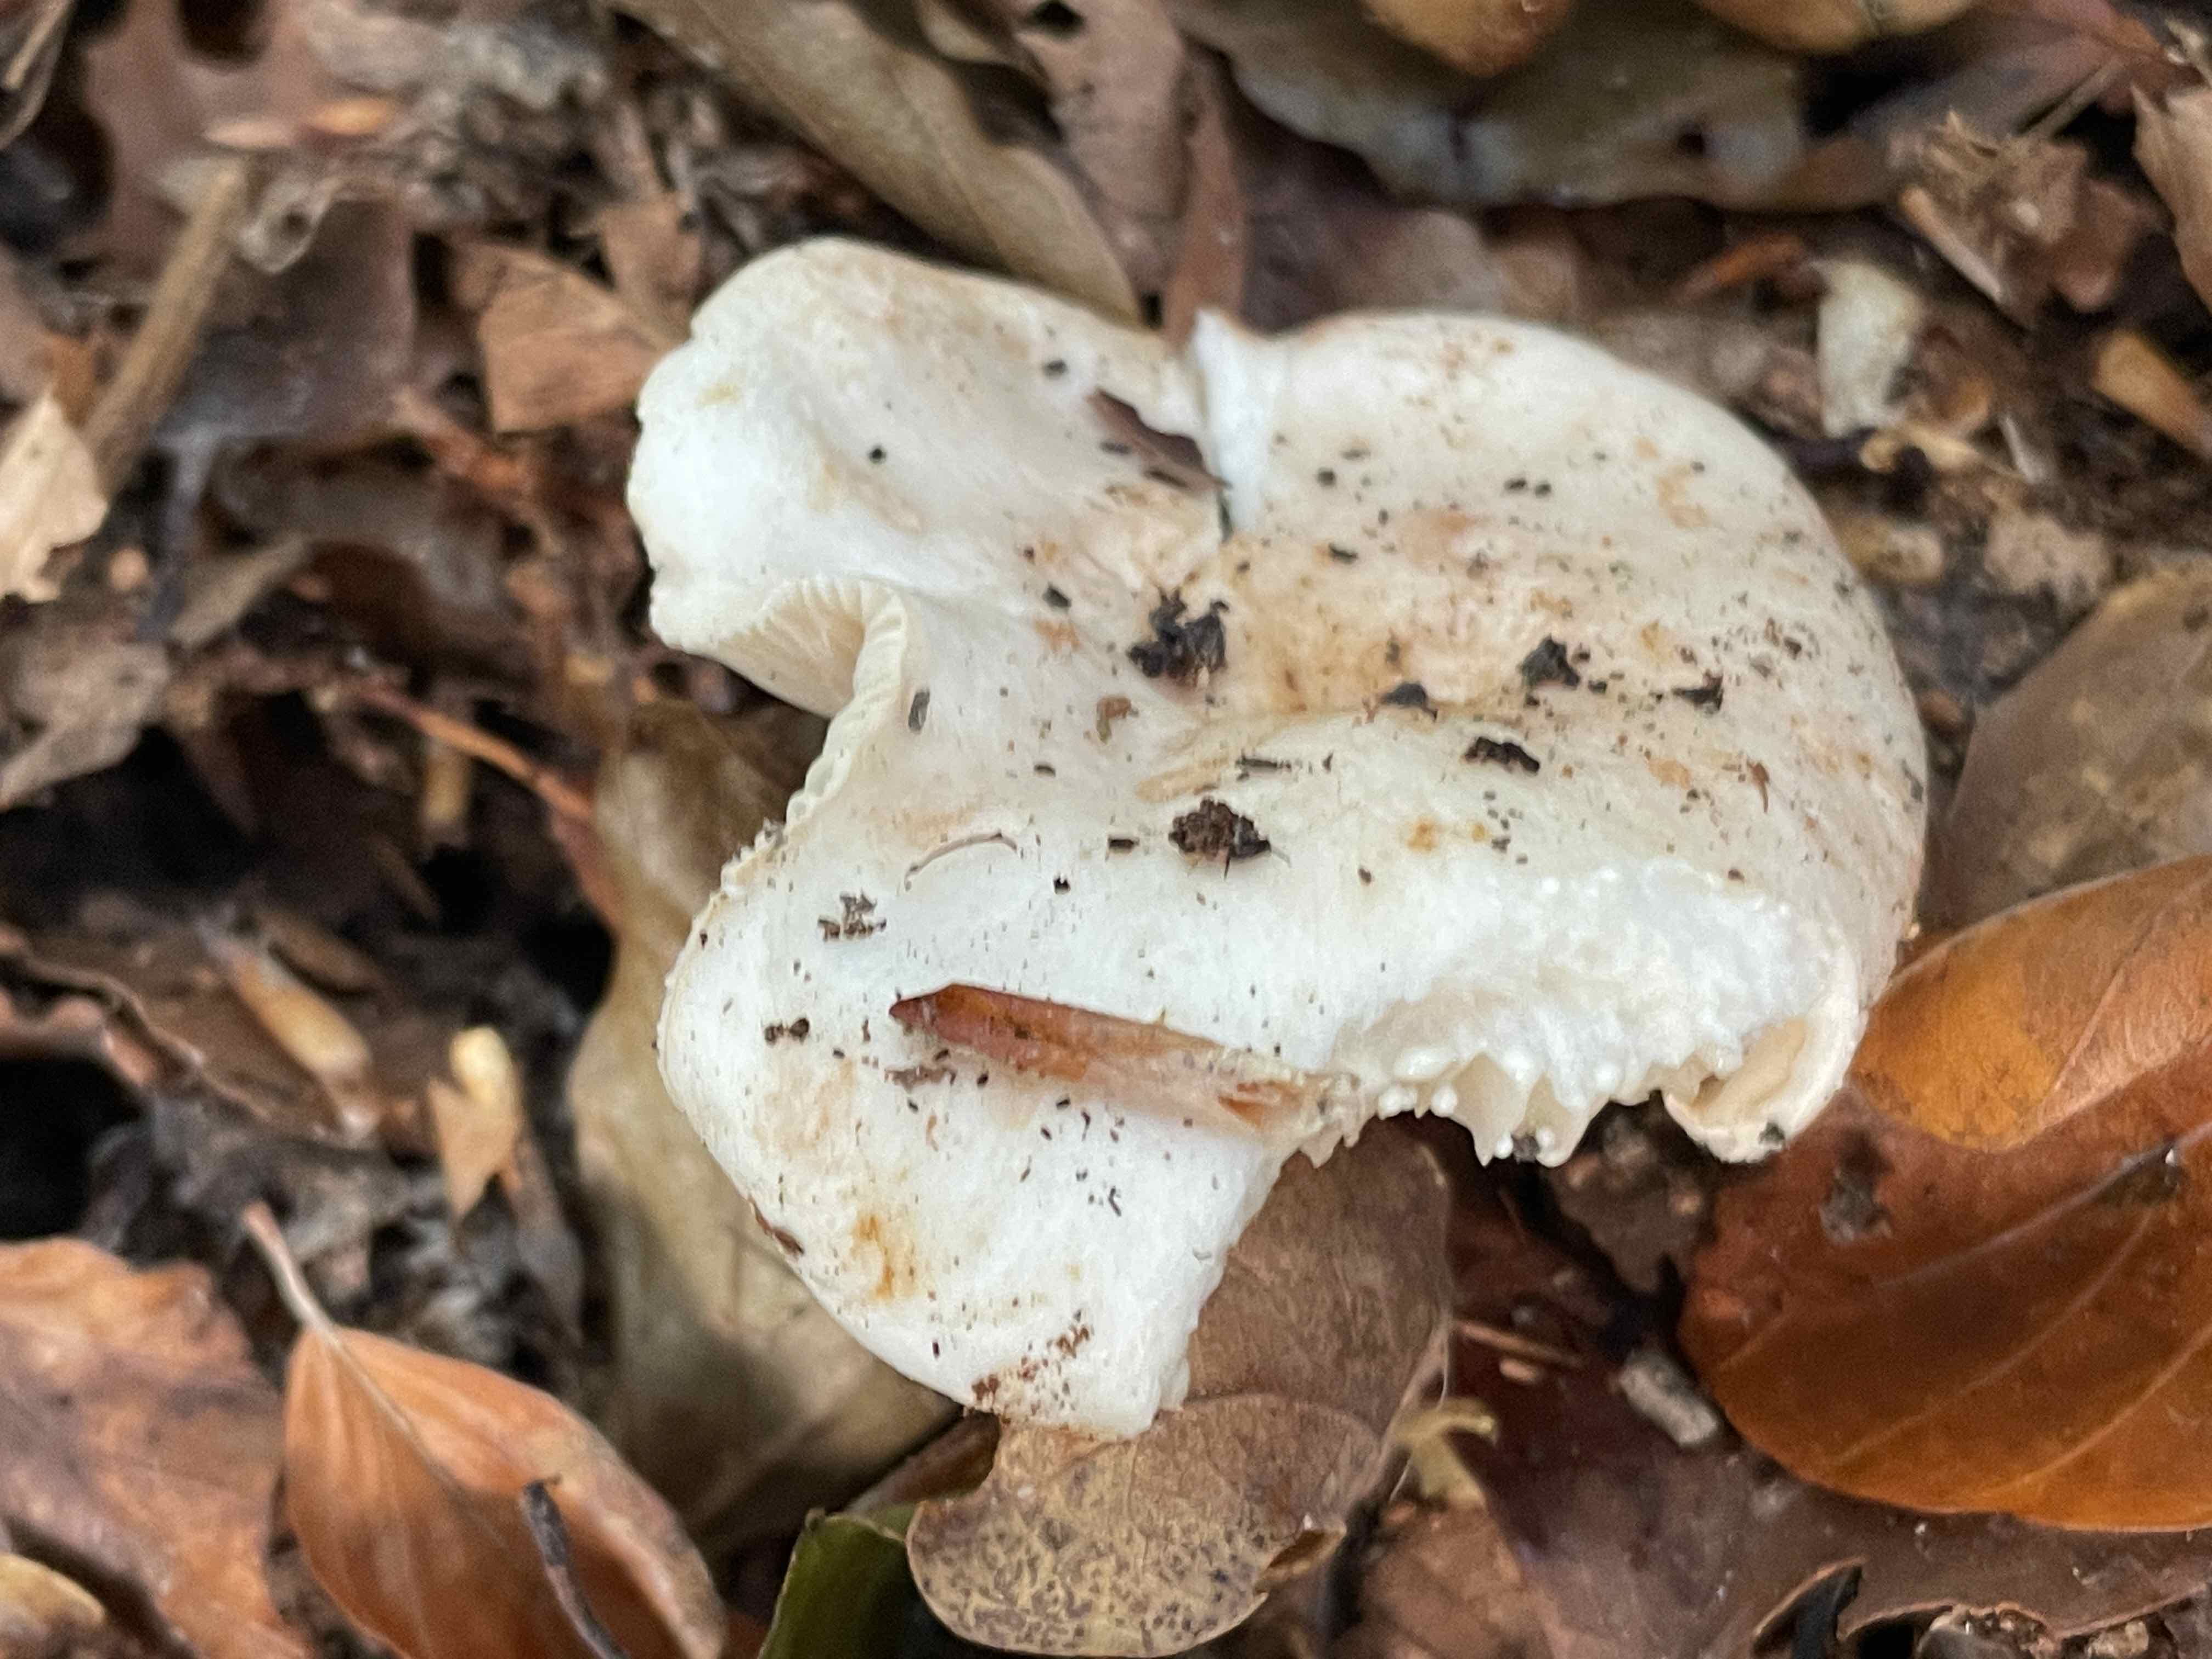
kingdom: Fungi
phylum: Basidiomycota
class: Agaricomycetes
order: Russulales
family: Russulaceae
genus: Lactarius
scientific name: Lactarius pallidus
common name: bleg mælkehat
